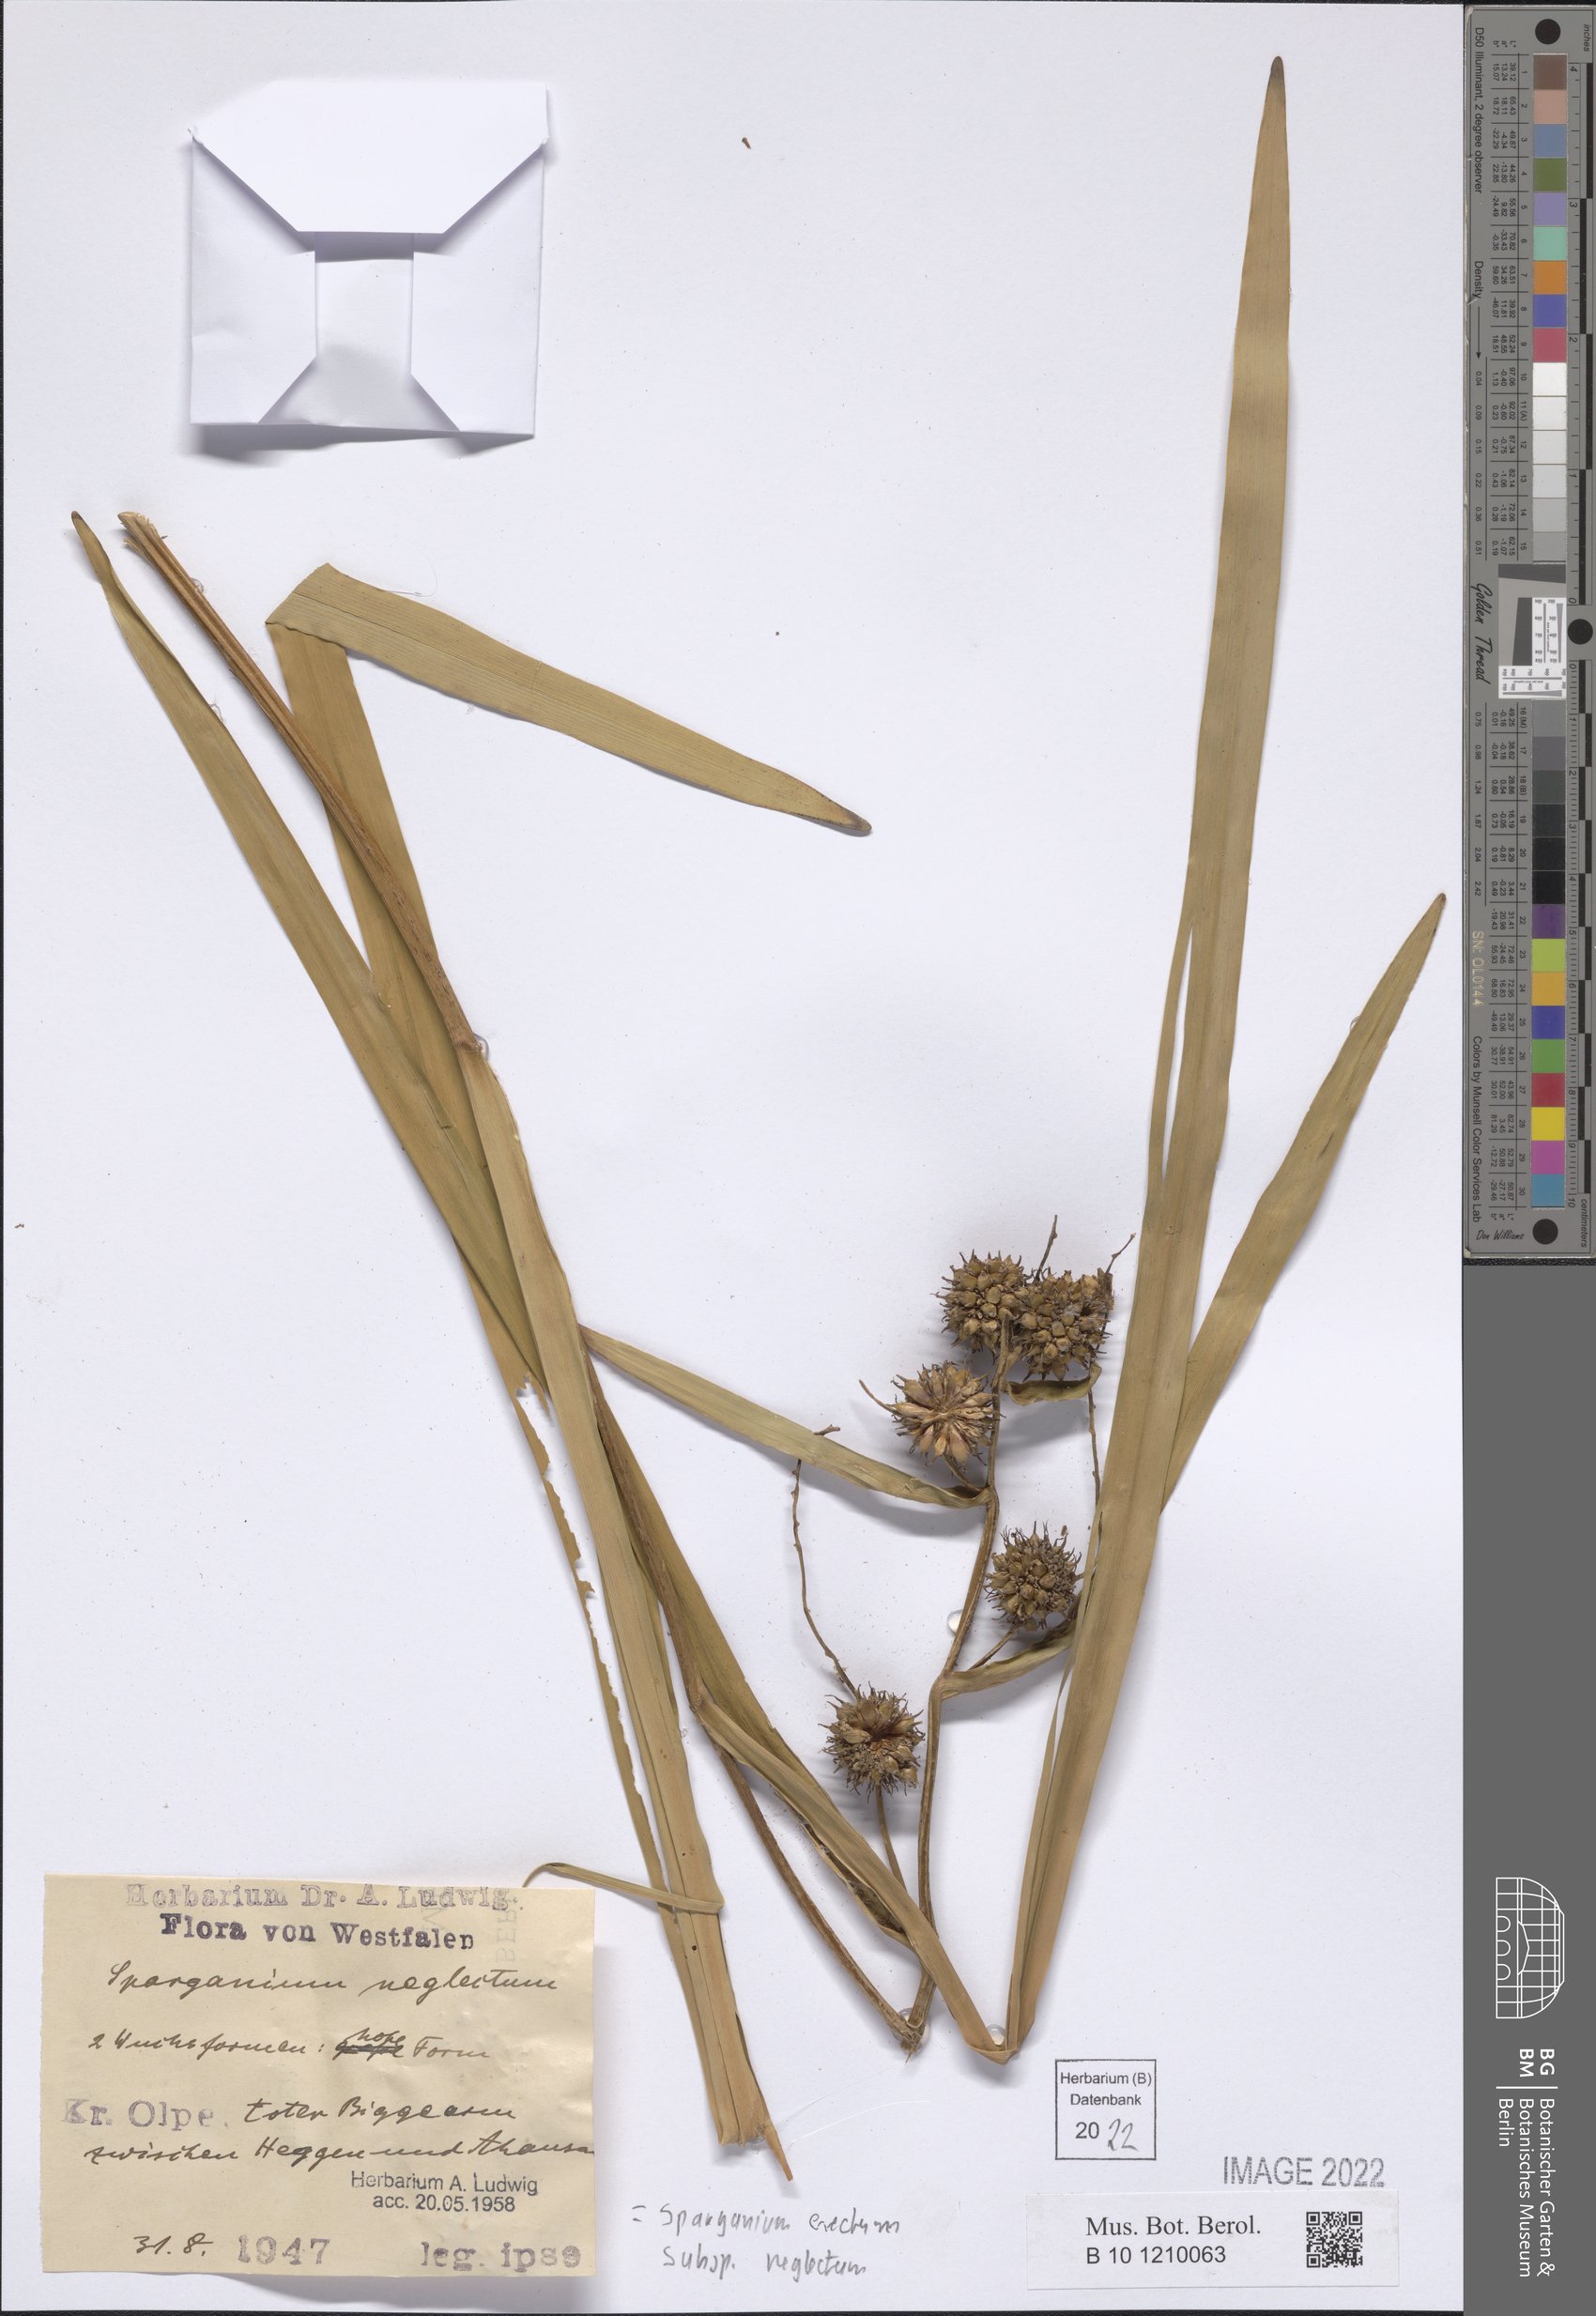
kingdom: Plantae
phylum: Tracheophyta
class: Liliopsida
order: Poales
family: Typhaceae
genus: Sparganium
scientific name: Sparganium erectum
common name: Branched bur-reed
